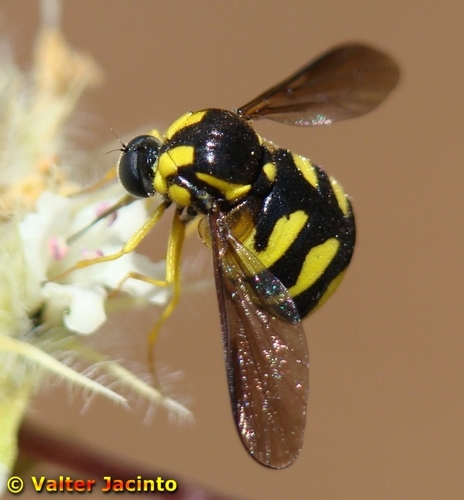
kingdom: Animalia
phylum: Arthropoda
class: Insecta
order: Diptera
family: Acroceridae
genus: Cyrtus
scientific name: Cyrtus gibbus
